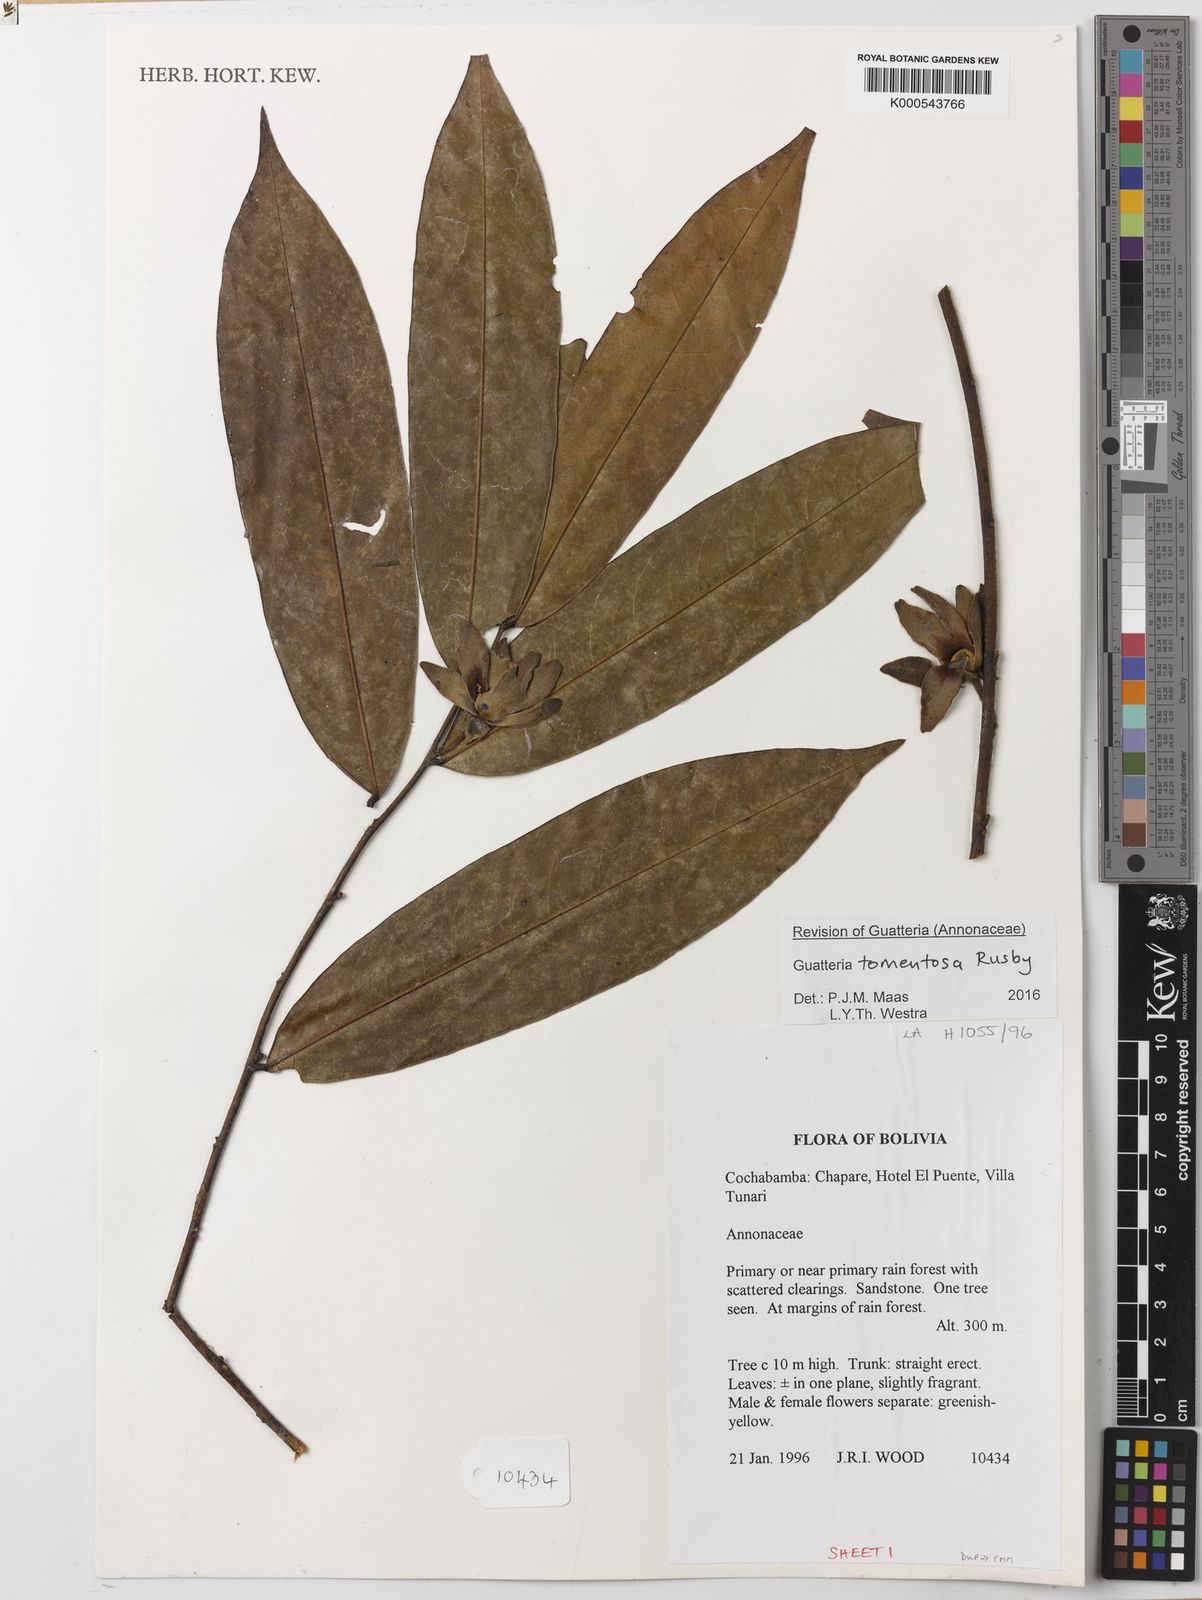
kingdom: Plantae
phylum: Tracheophyta
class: Magnoliopsida
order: Magnoliales
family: Annonaceae
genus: Guatteria
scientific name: Guatteria tomentosa
